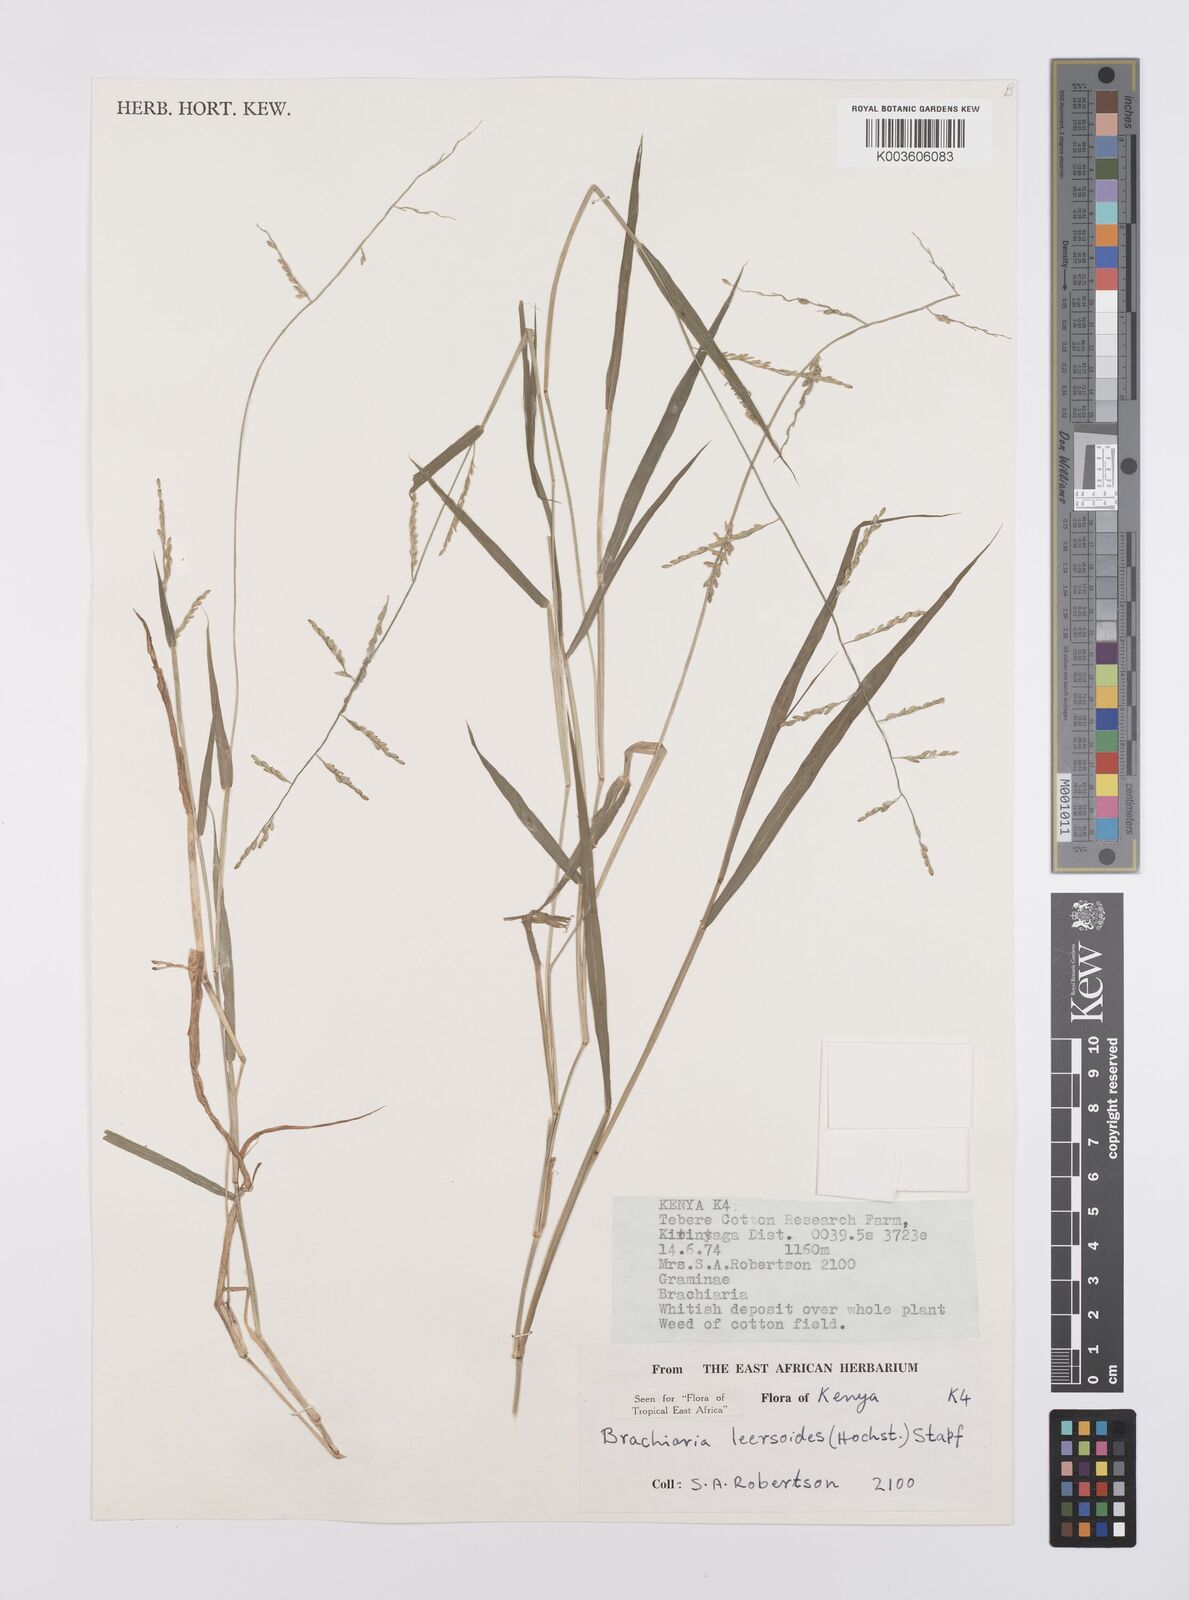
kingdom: Plantae
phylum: Tracheophyta
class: Liliopsida
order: Poales
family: Poaceae
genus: Urochloa
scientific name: Urochloa leersioides
